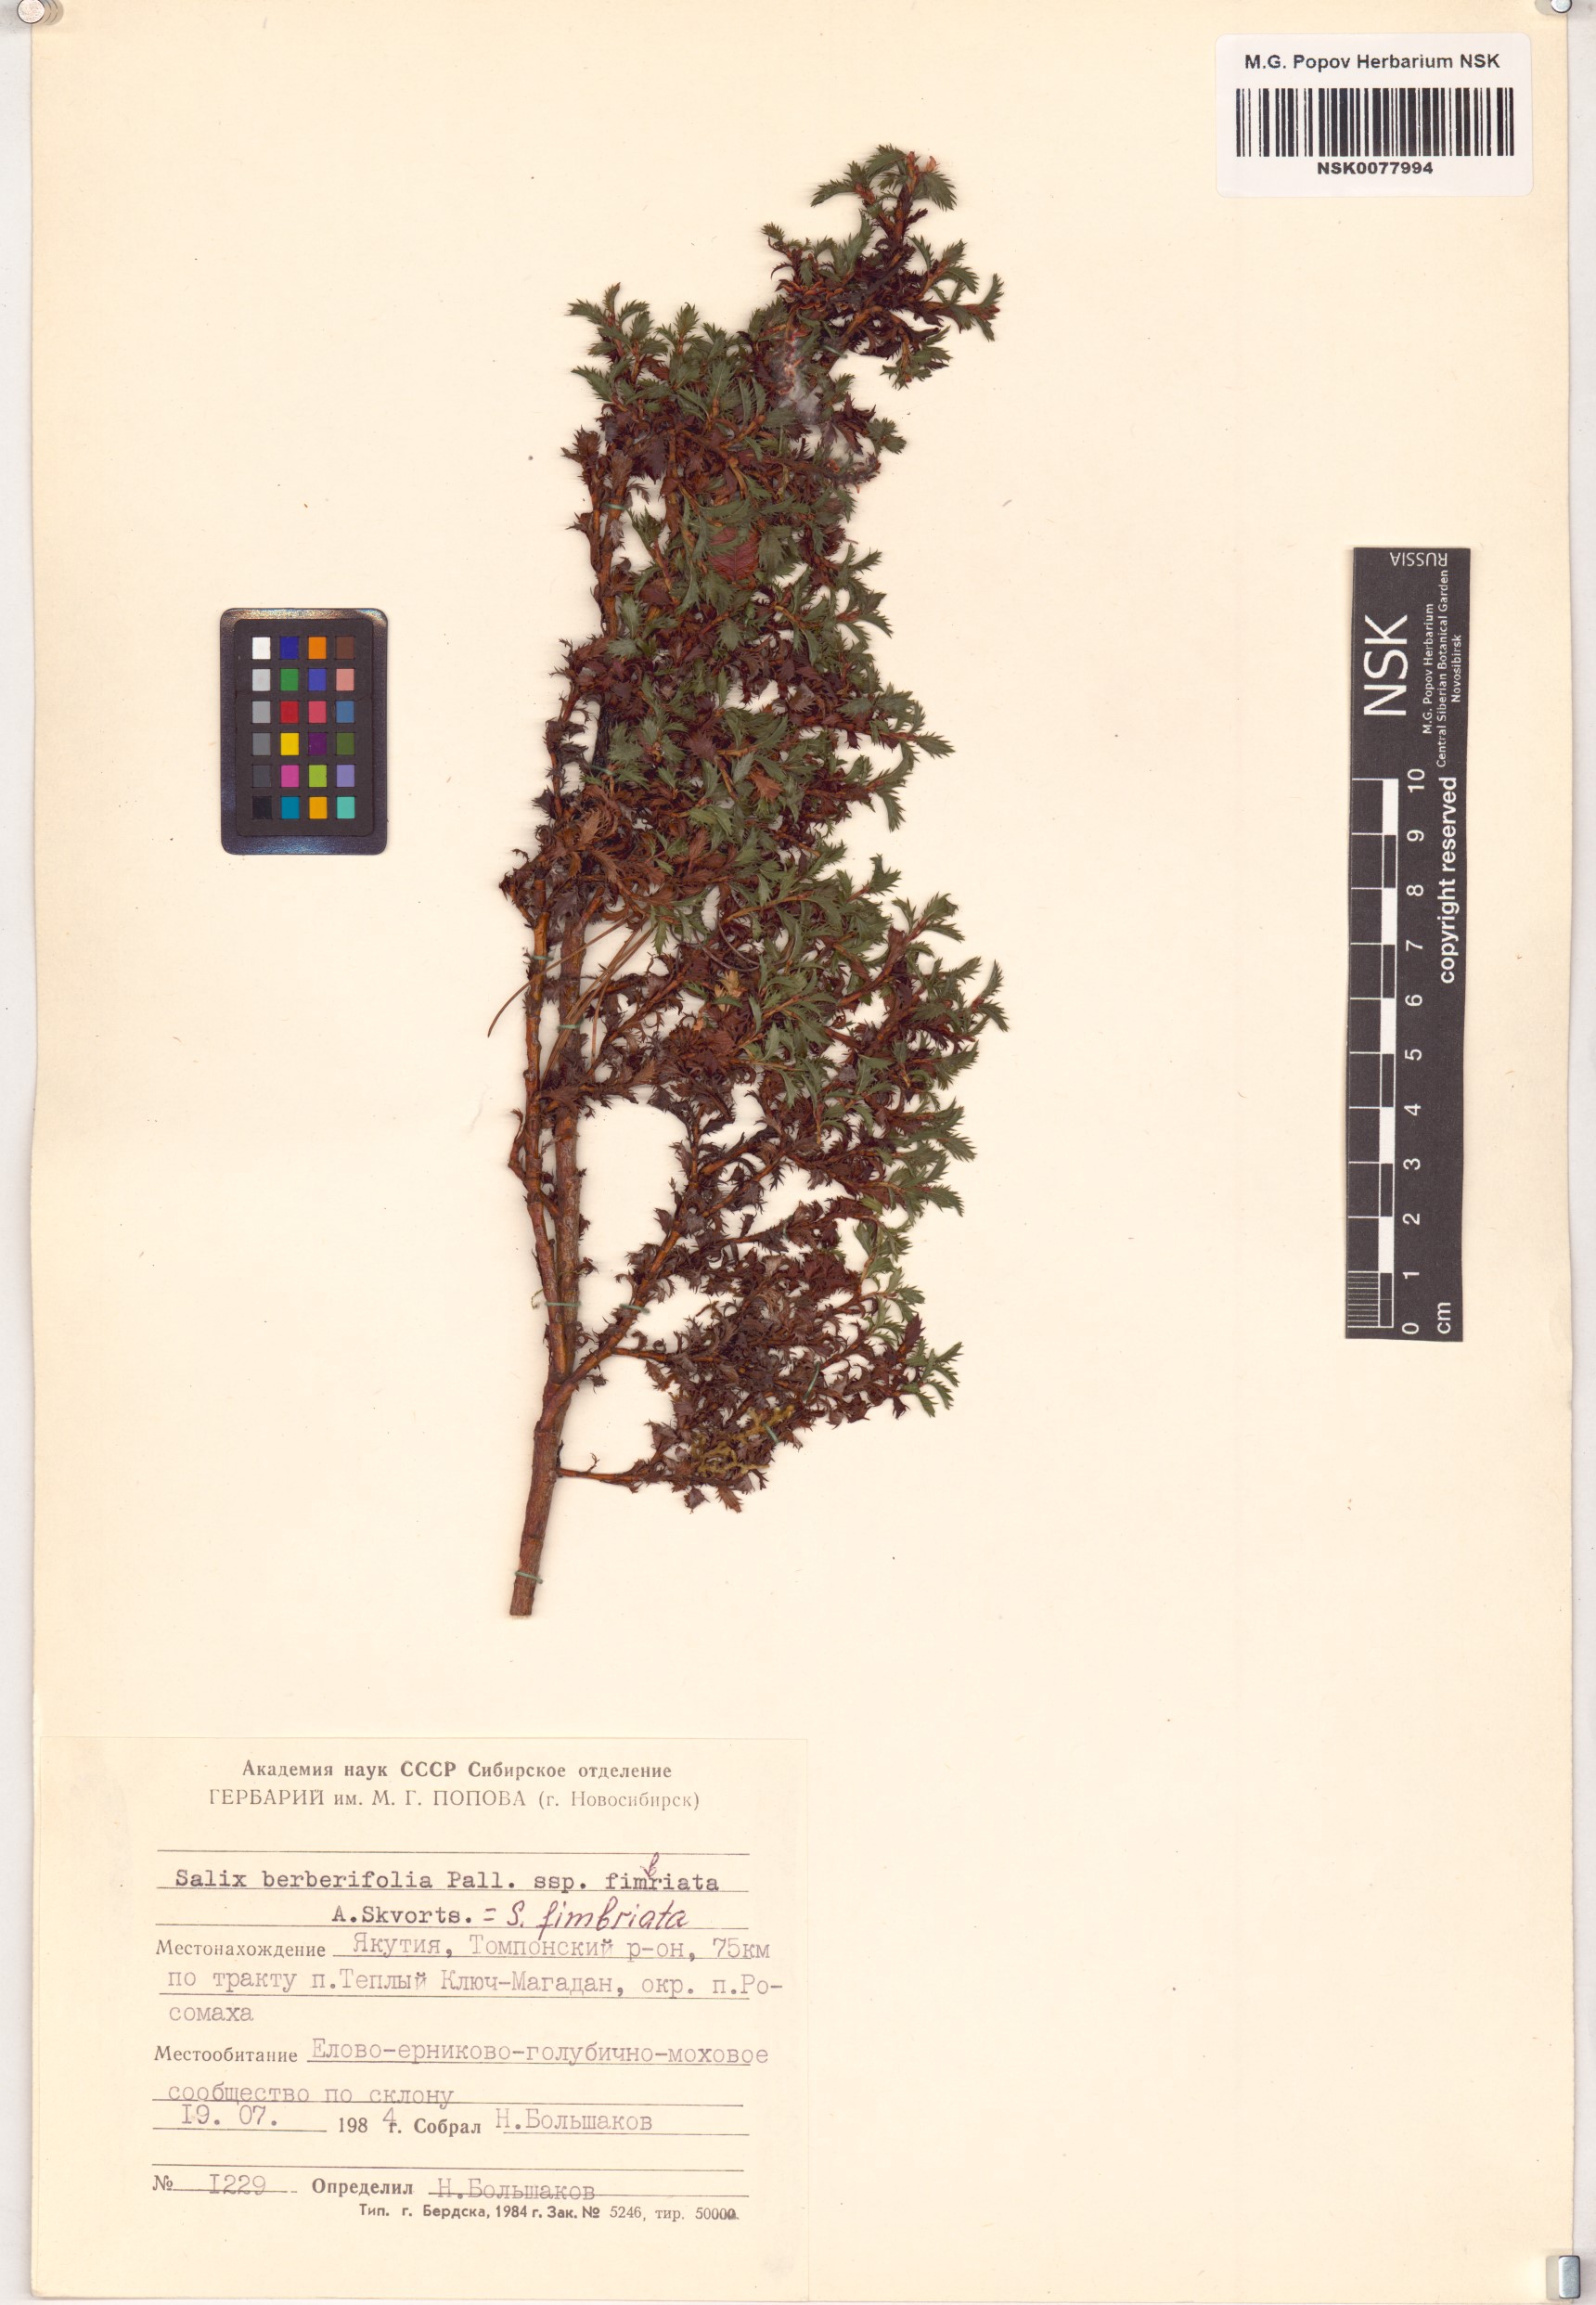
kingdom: Plantae
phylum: Tracheophyta
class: Magnoliopsida
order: Malpighiales
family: Salicaceae
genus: Salix
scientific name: Salix berberifolia
